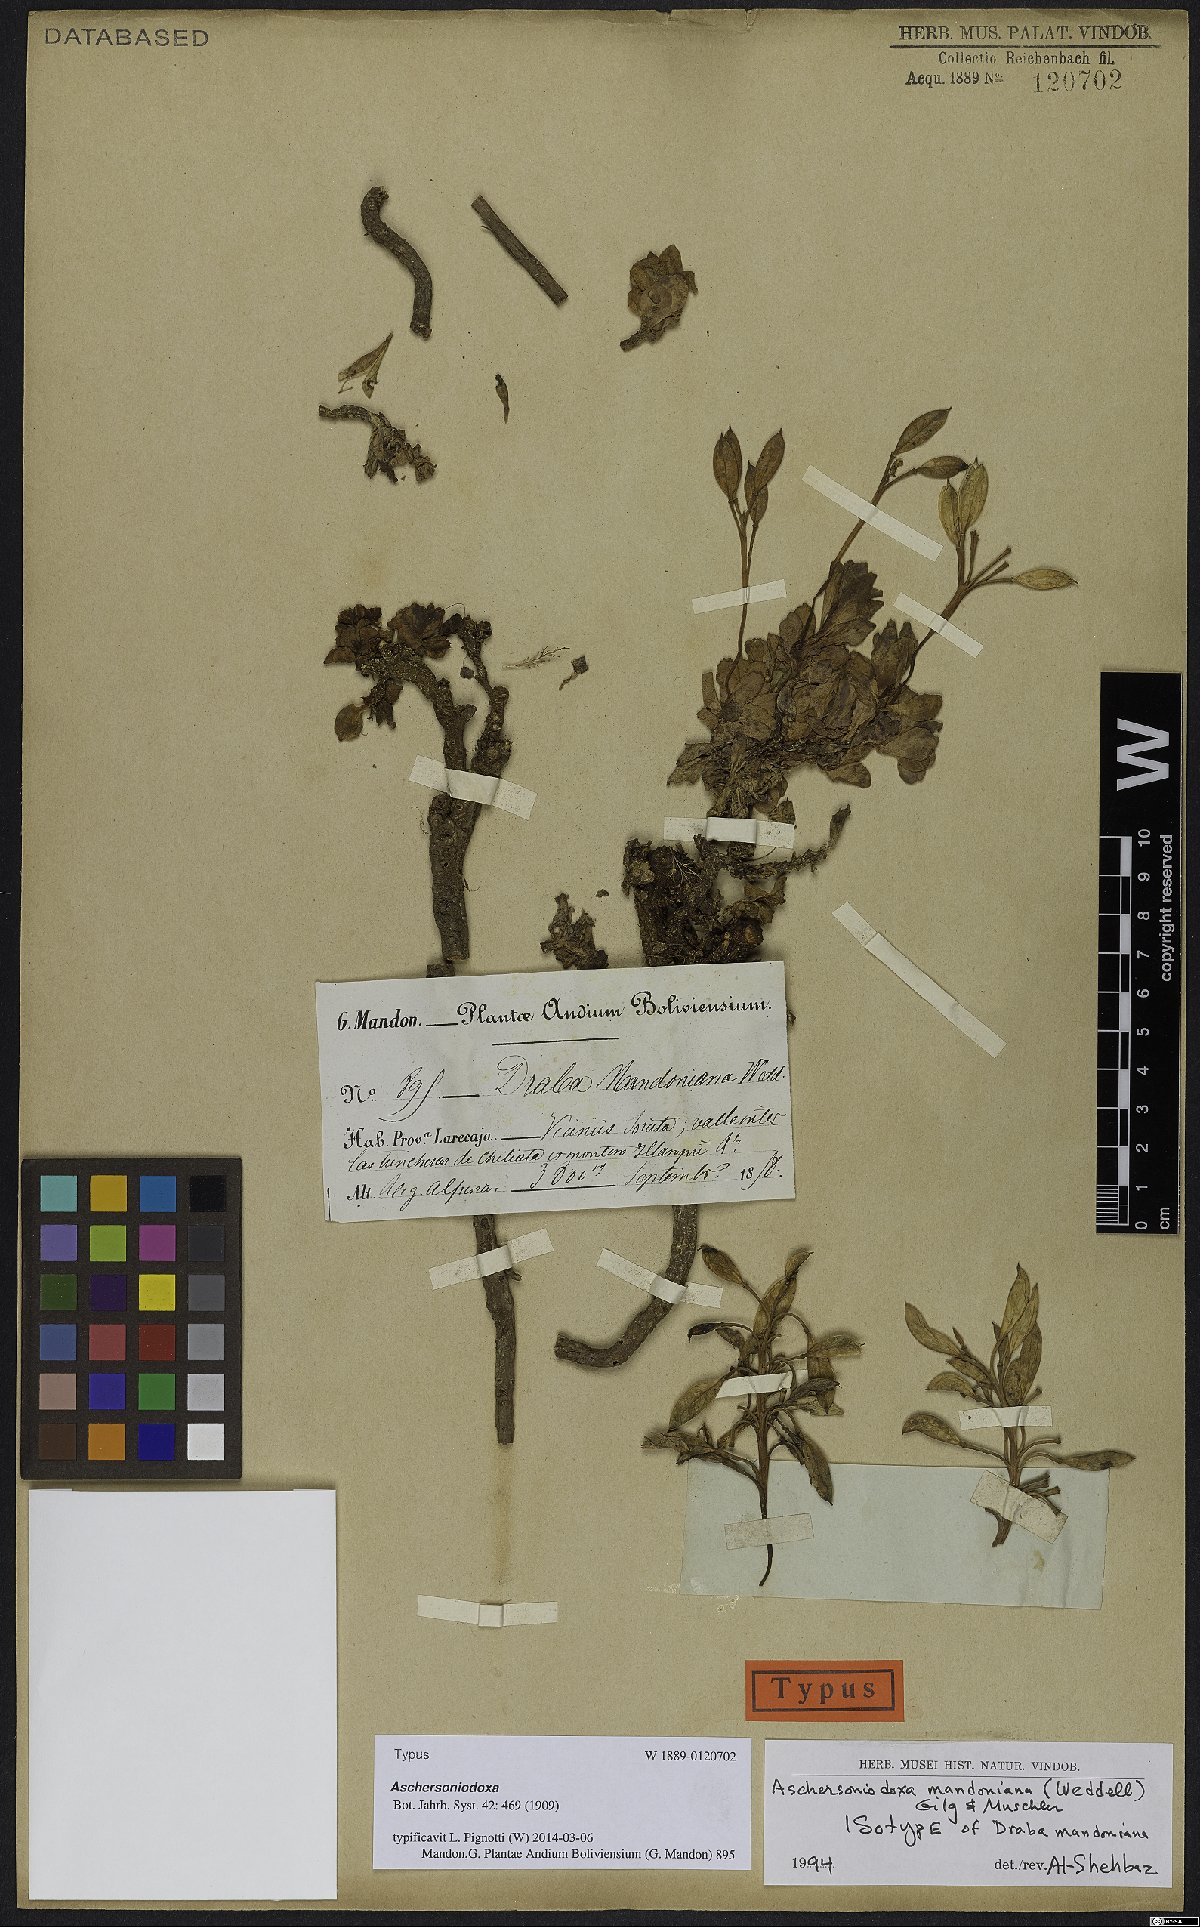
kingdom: Plantae
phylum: Tracheophyta
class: Magnoliopsida
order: Brassicales
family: Brassicaceae
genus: Aschersoniodoxa
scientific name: Aschersoniodoxa mandoniana
